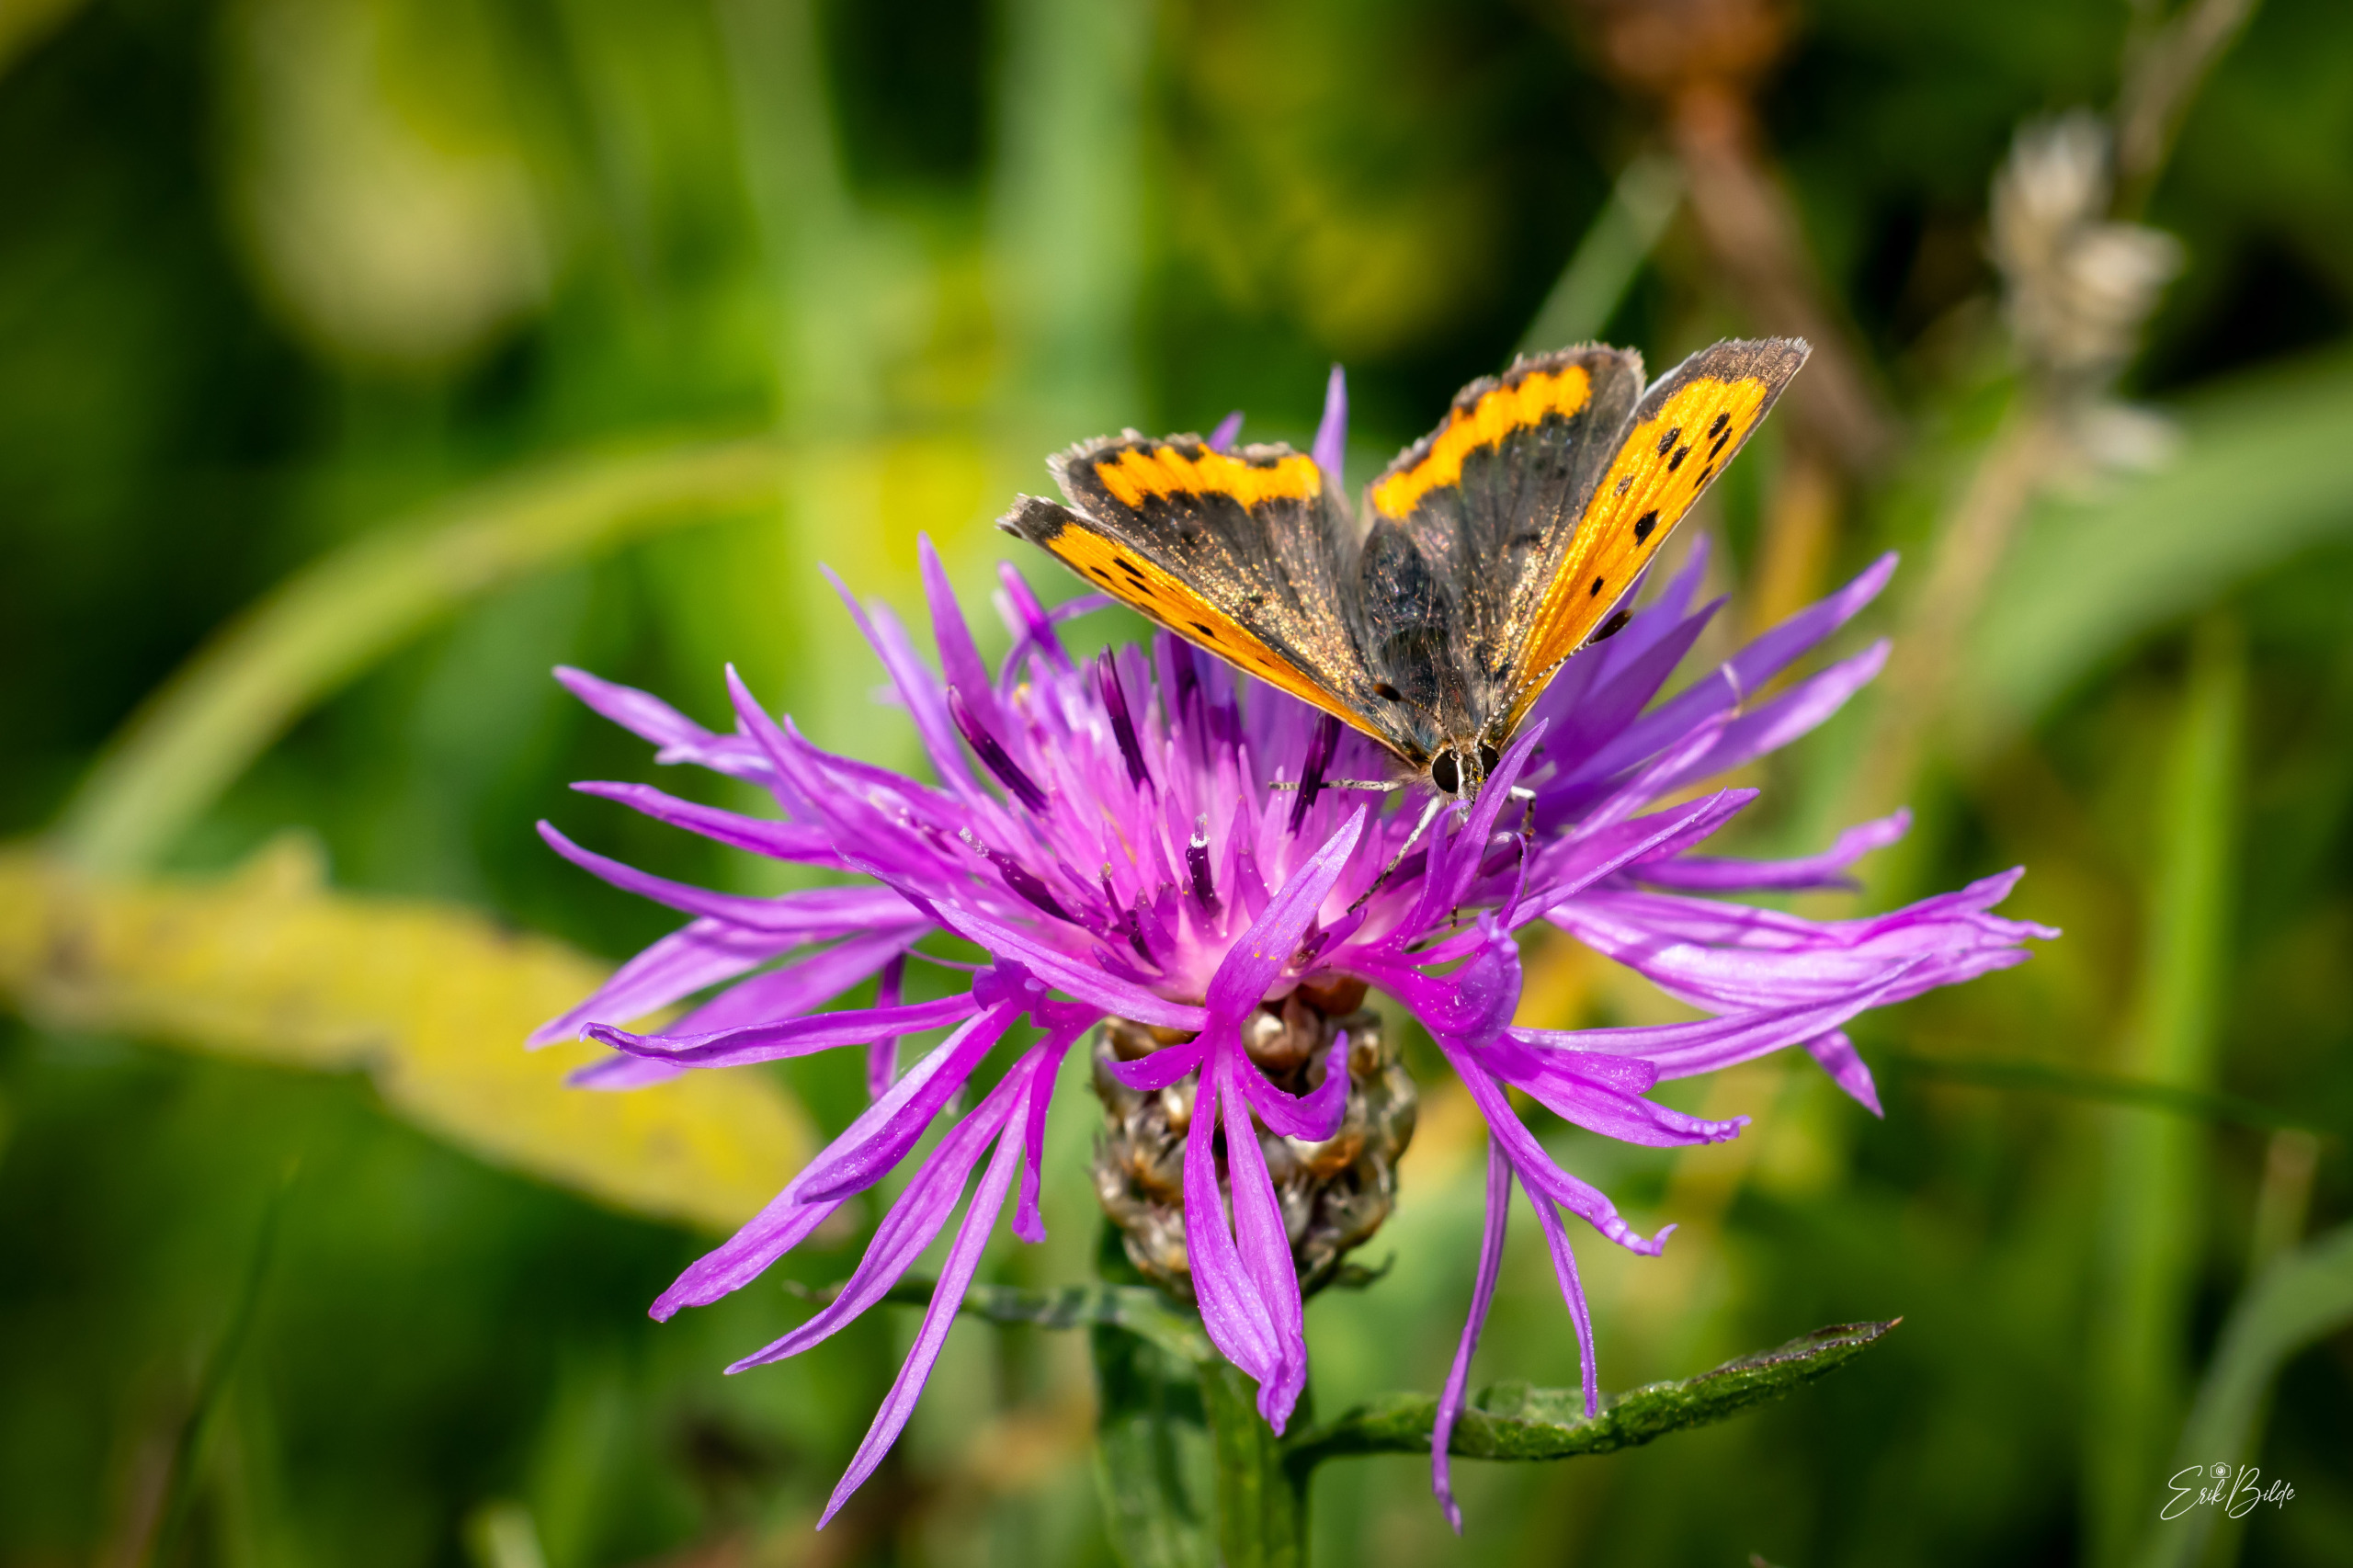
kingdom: Animalia
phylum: Arthropoda
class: Insecta
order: Lepidoptera
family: Lycaenidae
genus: Lycaena
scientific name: Lycaena phlaeas
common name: Lille ildfugl
